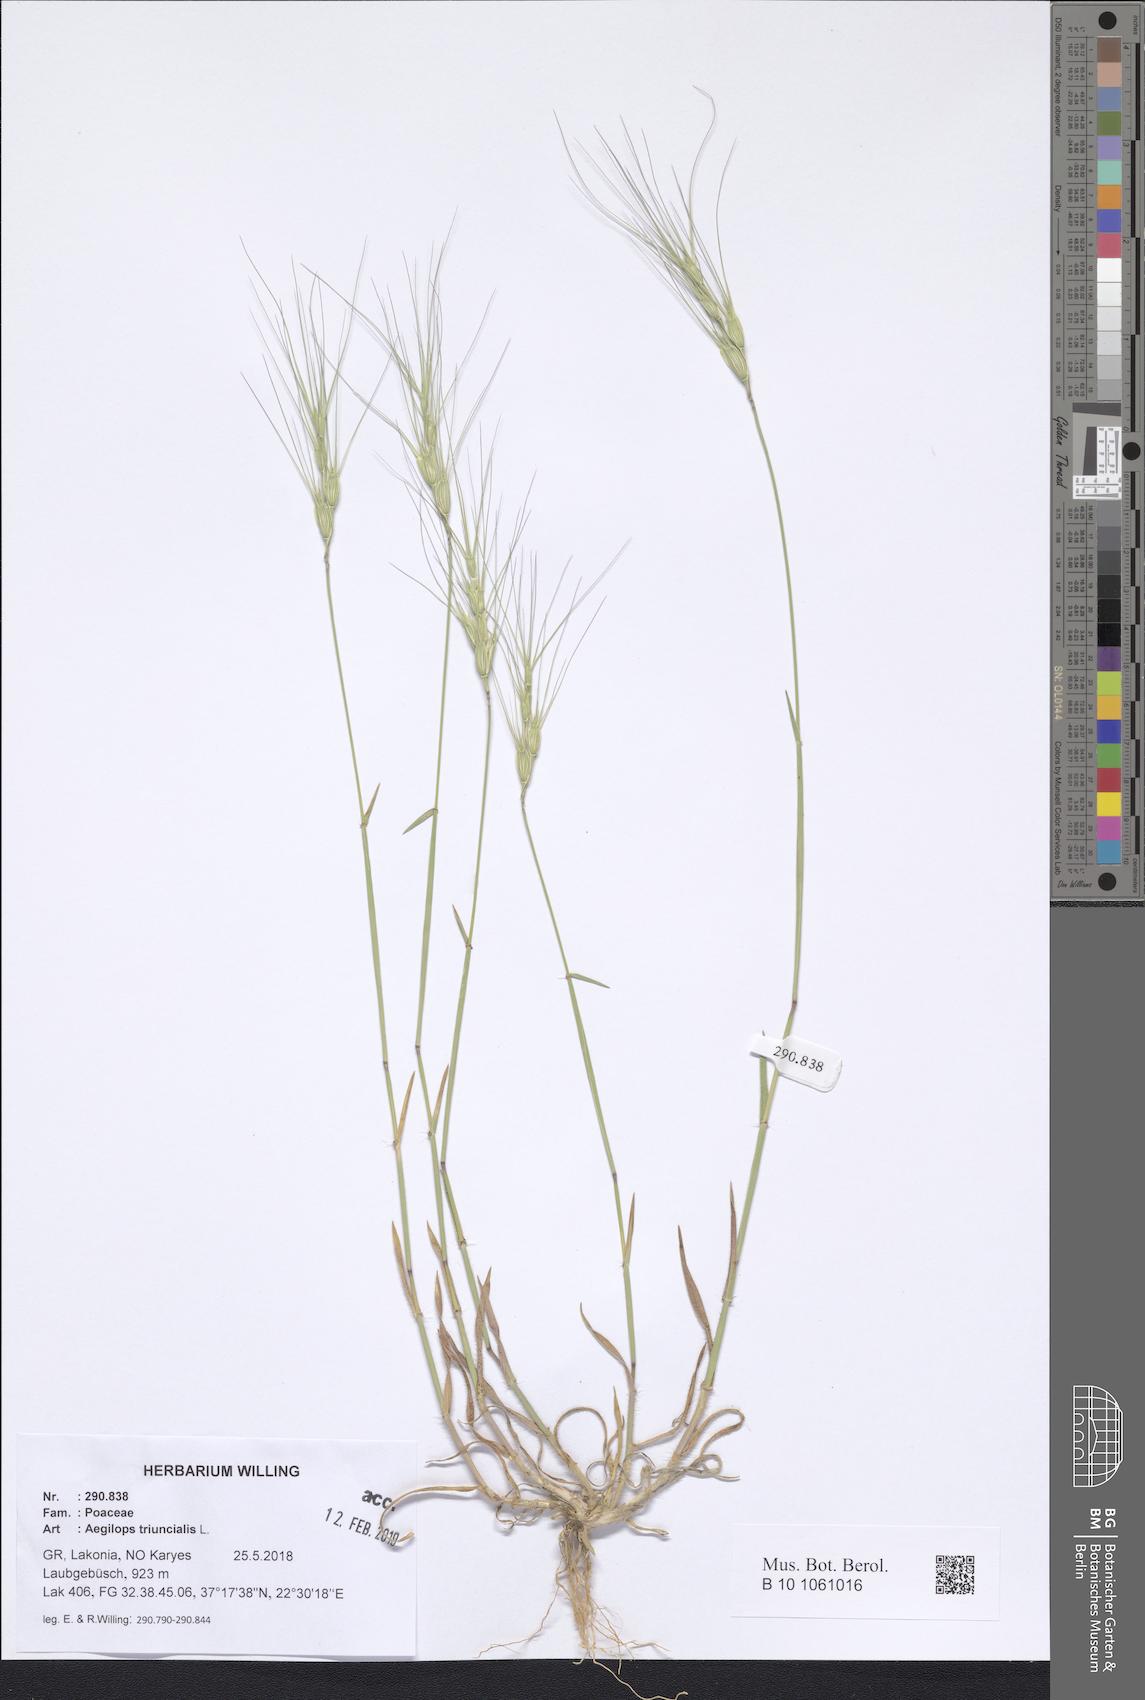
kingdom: Plantae
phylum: Tracheophyta
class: Liliopsida
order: Poales
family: Poaceae
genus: Aegilops
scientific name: Aegilops triuncialis
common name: Barb goat grass
